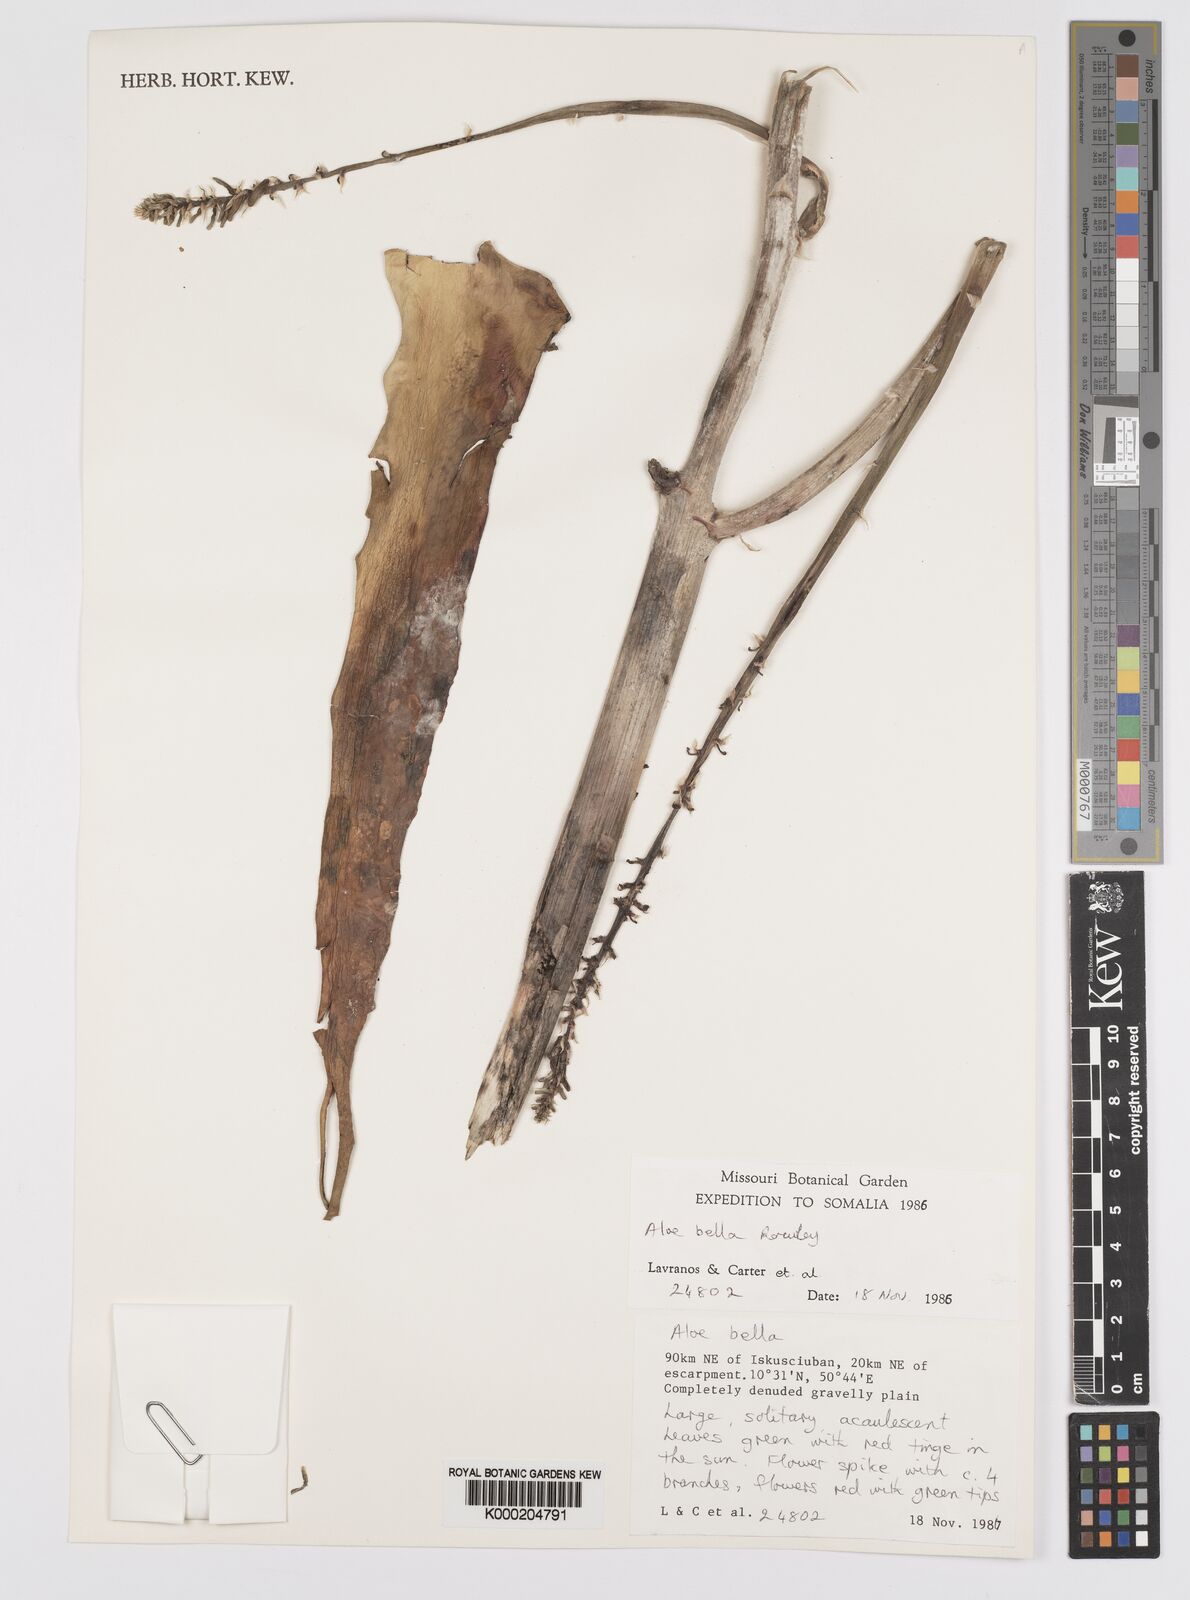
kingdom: Plantae
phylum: Tracheophyta
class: Liliopsida
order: Asparagales
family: Asphodelaceae
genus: Aloe
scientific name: Aloe bella
